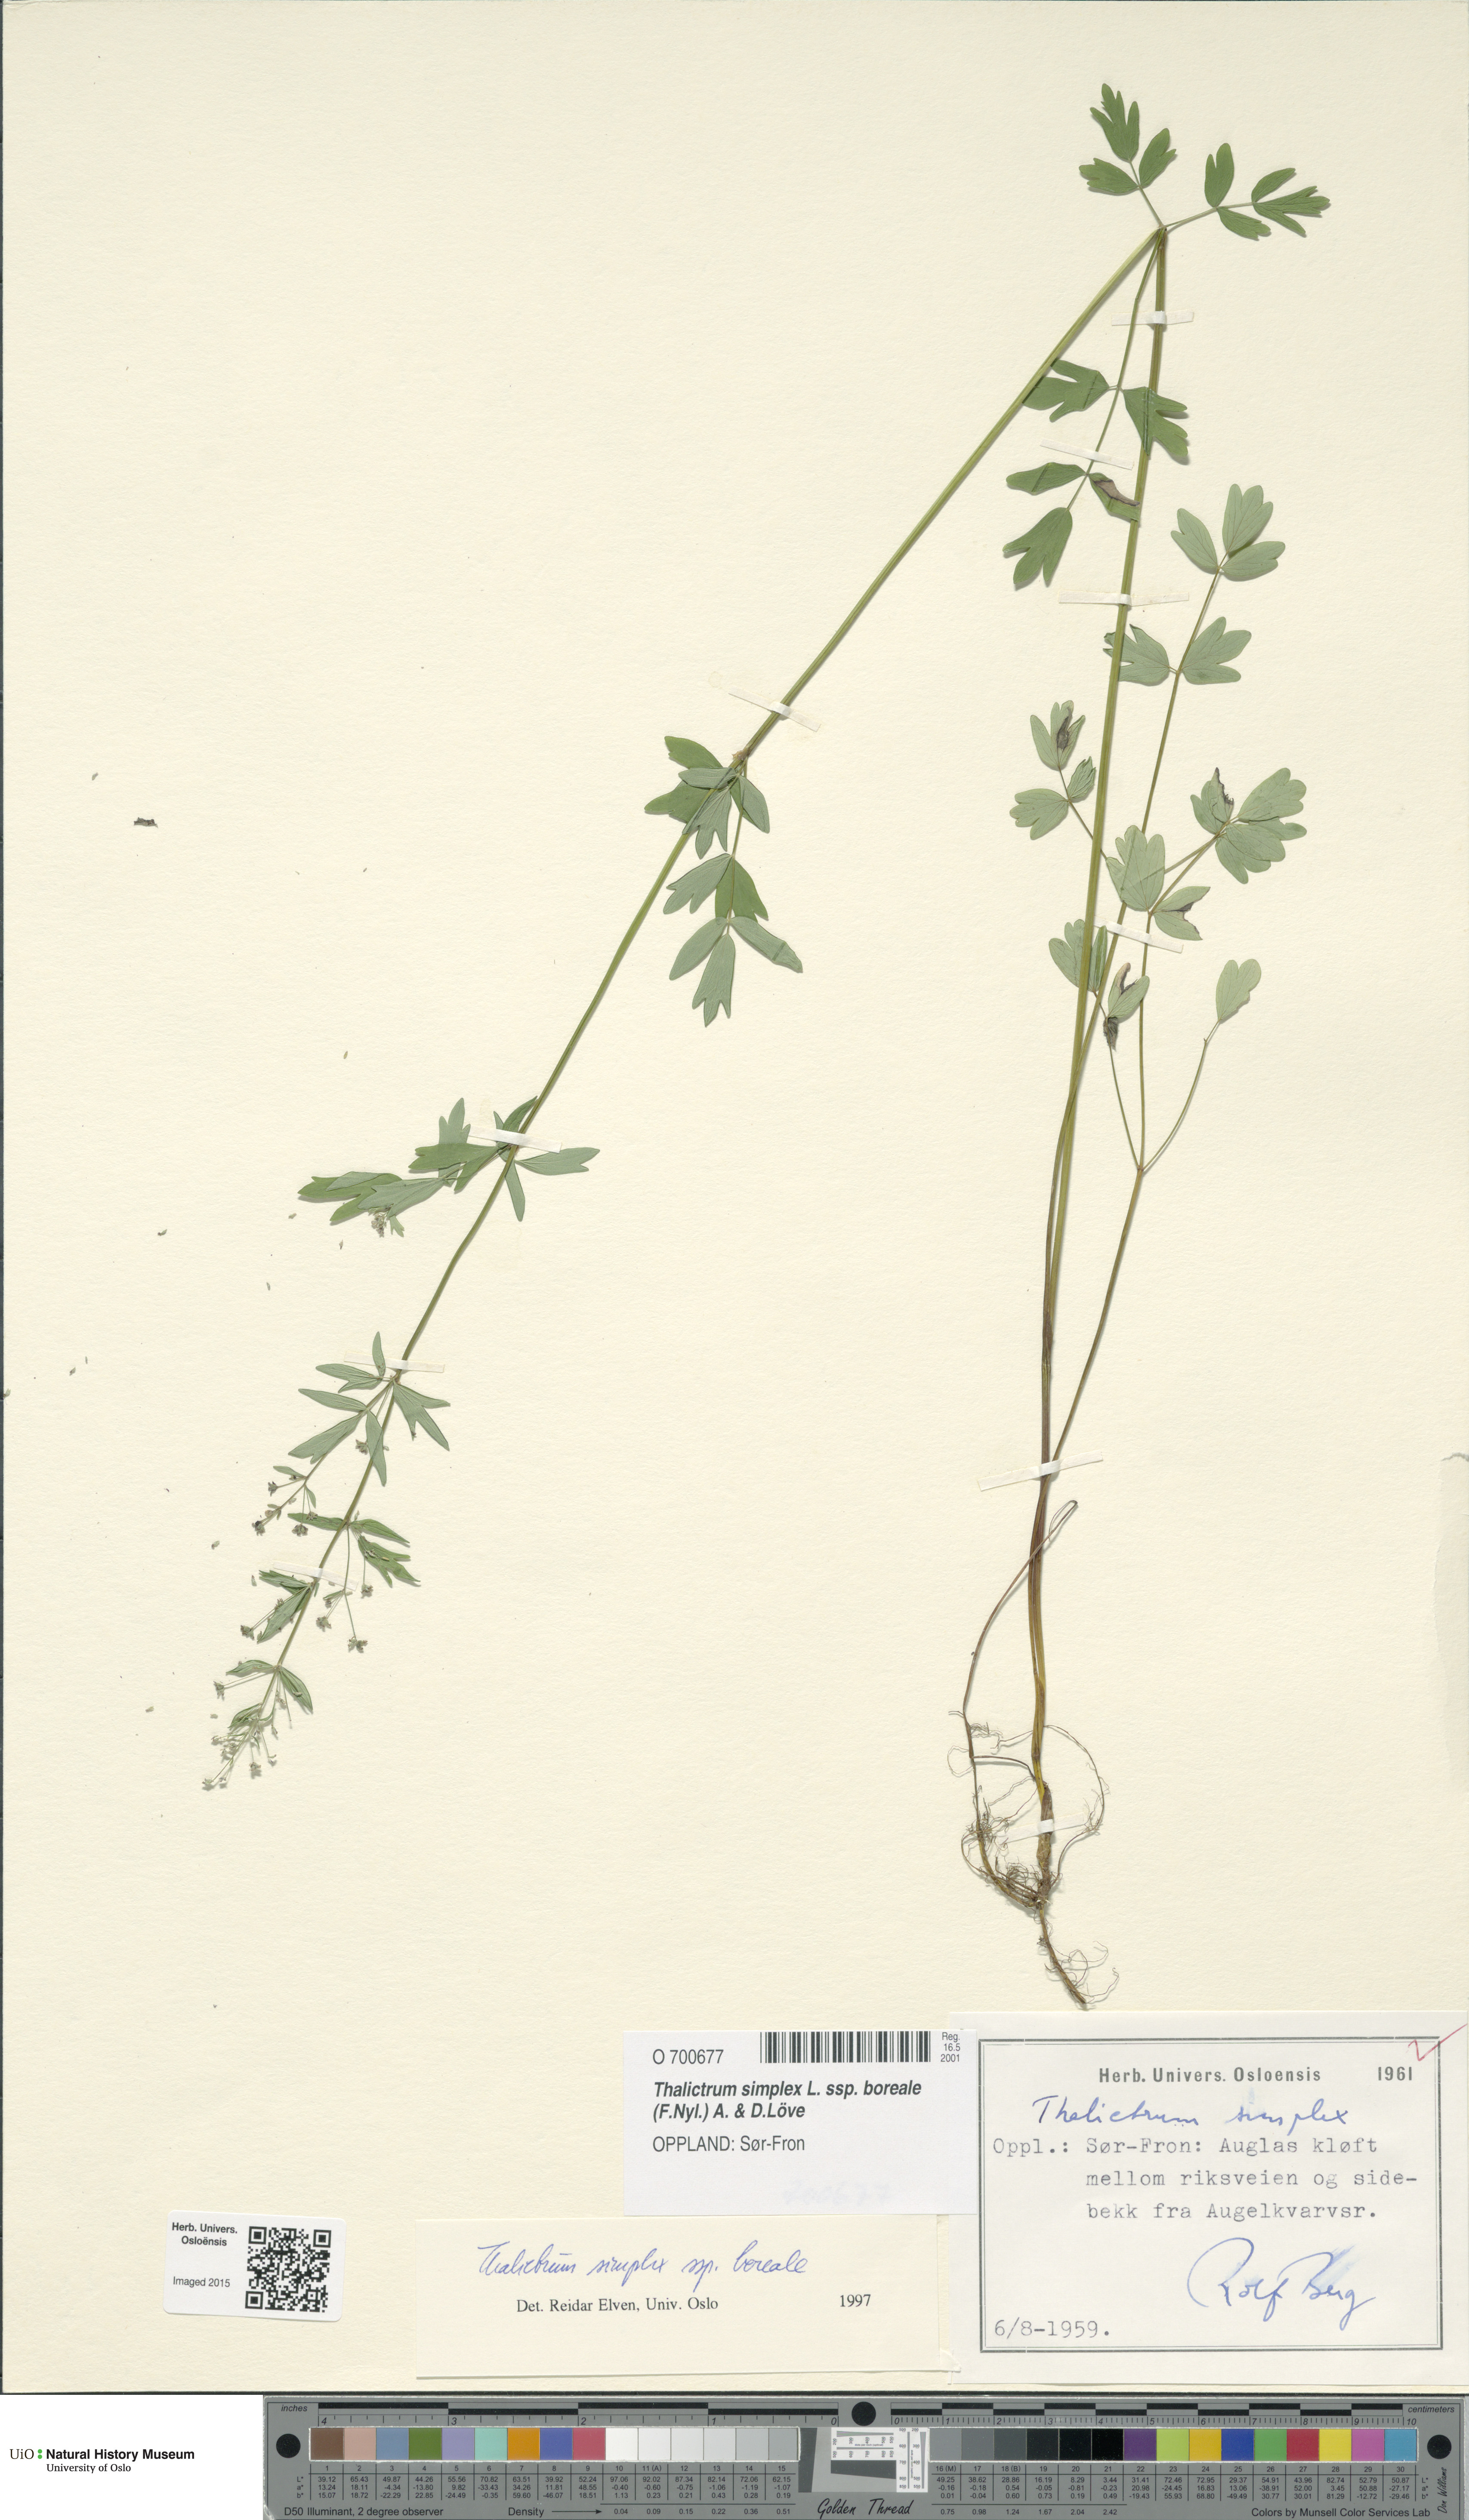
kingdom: Plantae
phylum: Tracheophyta
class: Magnoliopsida
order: Ranunculales
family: Ranunculaceae
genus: Thalictrum
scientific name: Thalictrum simplex
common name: Small meadow-rue
